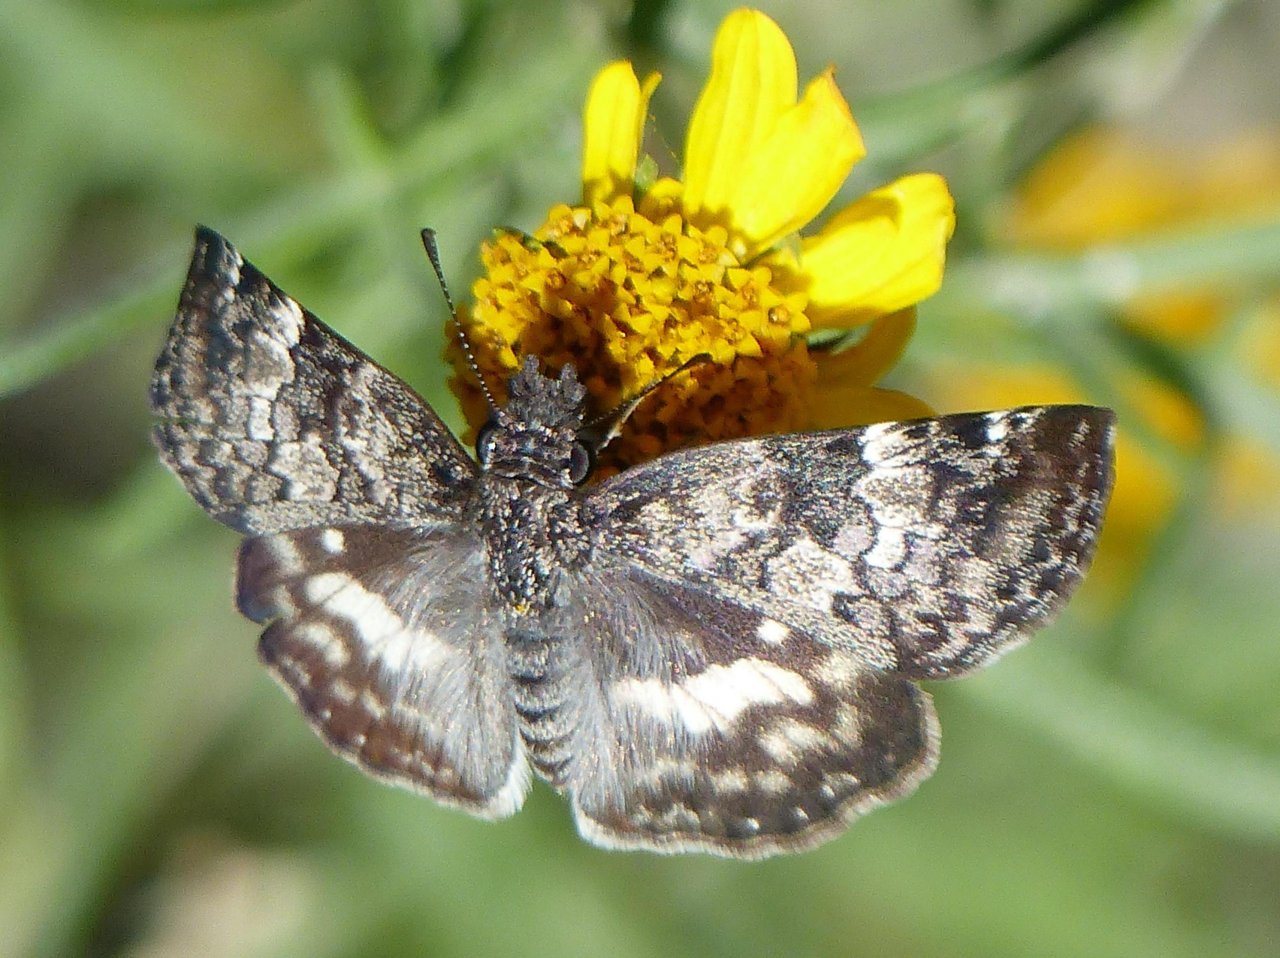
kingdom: Animalia
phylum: Arthropoda
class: Insecta
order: Lepidoptera
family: Hesperiidae
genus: Chiomara
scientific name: Chiomara asychis
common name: White-patched Skipper
